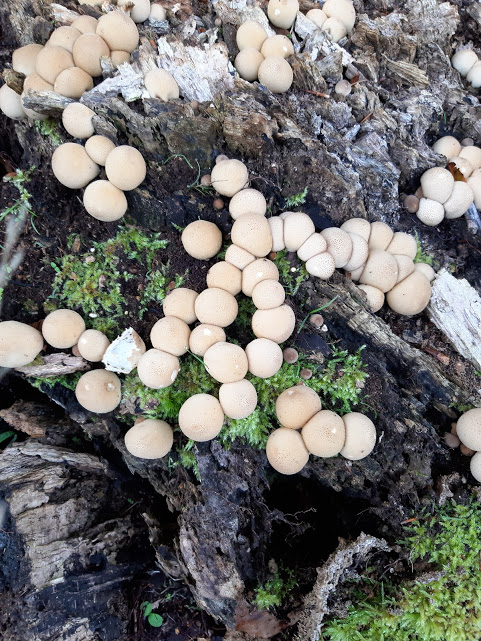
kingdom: Fungi
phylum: Basidiomycota
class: Agaricomycetes
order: Agaricales
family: Lycoperdaceae
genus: Apioperdon
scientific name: Apioperdon pyriforme
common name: pære-støvbold
